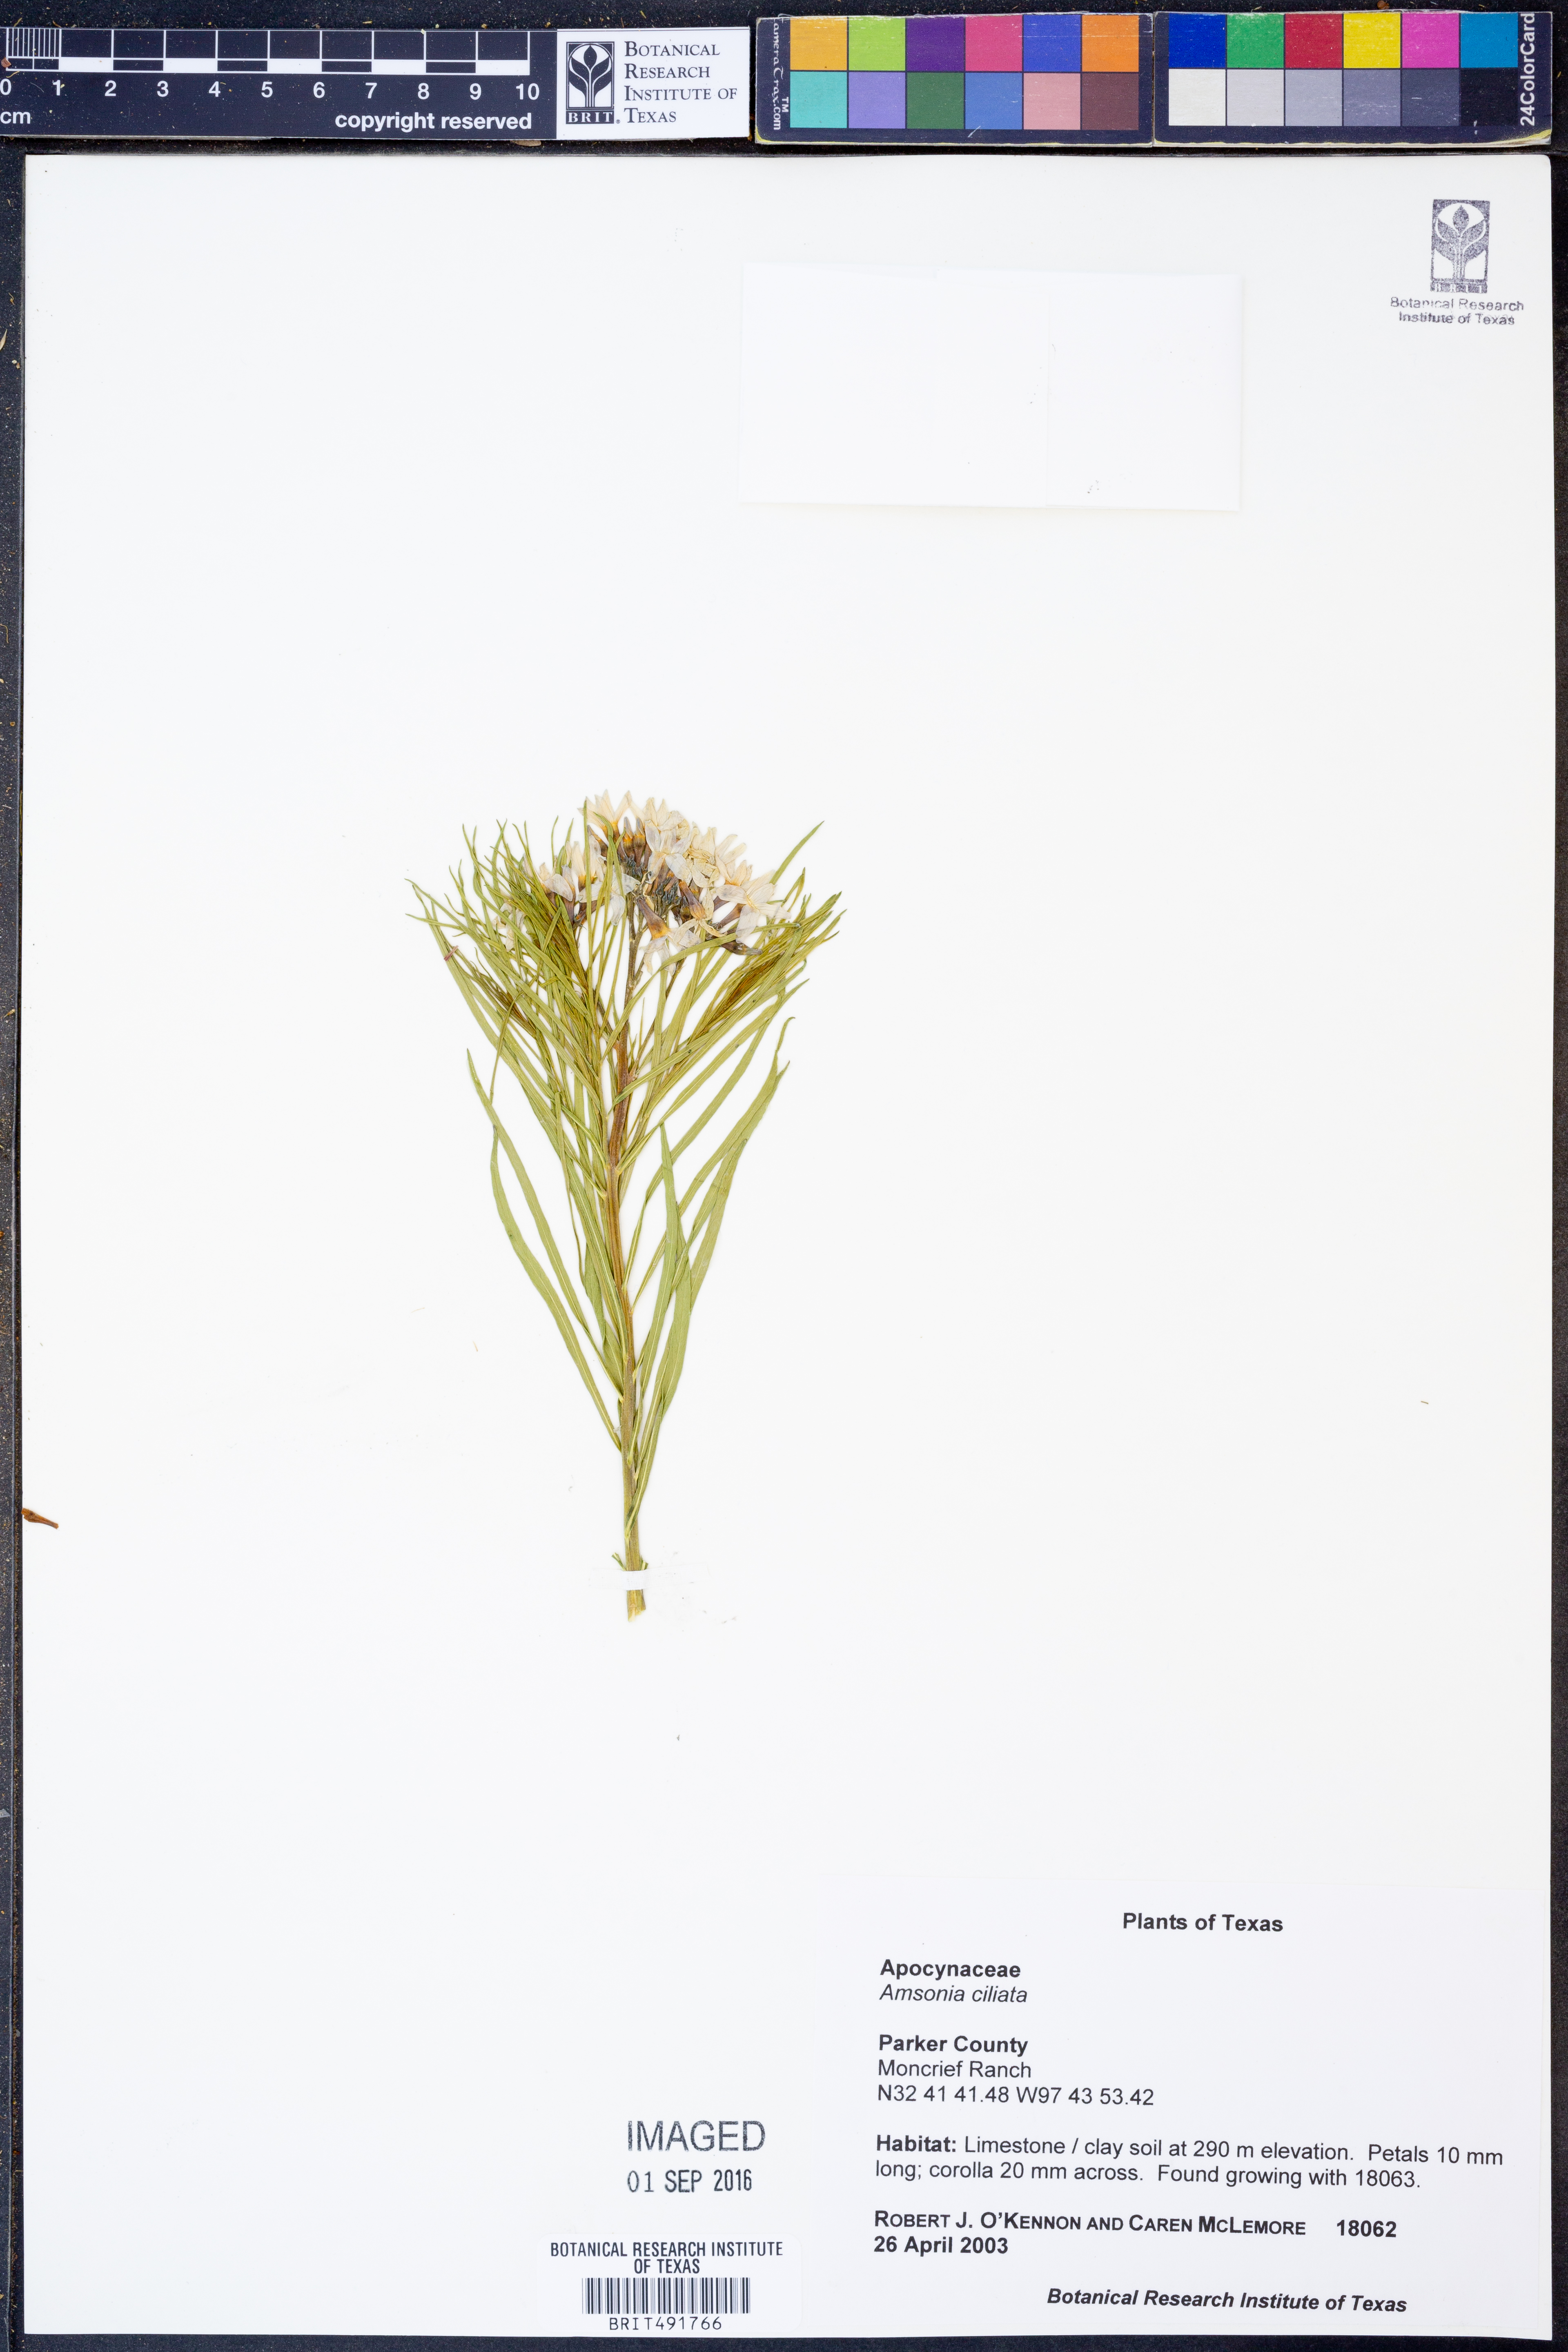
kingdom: Plantae
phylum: Tracheophyta
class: Magnoliopsida
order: Gentianales
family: Apocynaceae
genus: Amsonia
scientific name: Amsonia ciliata
